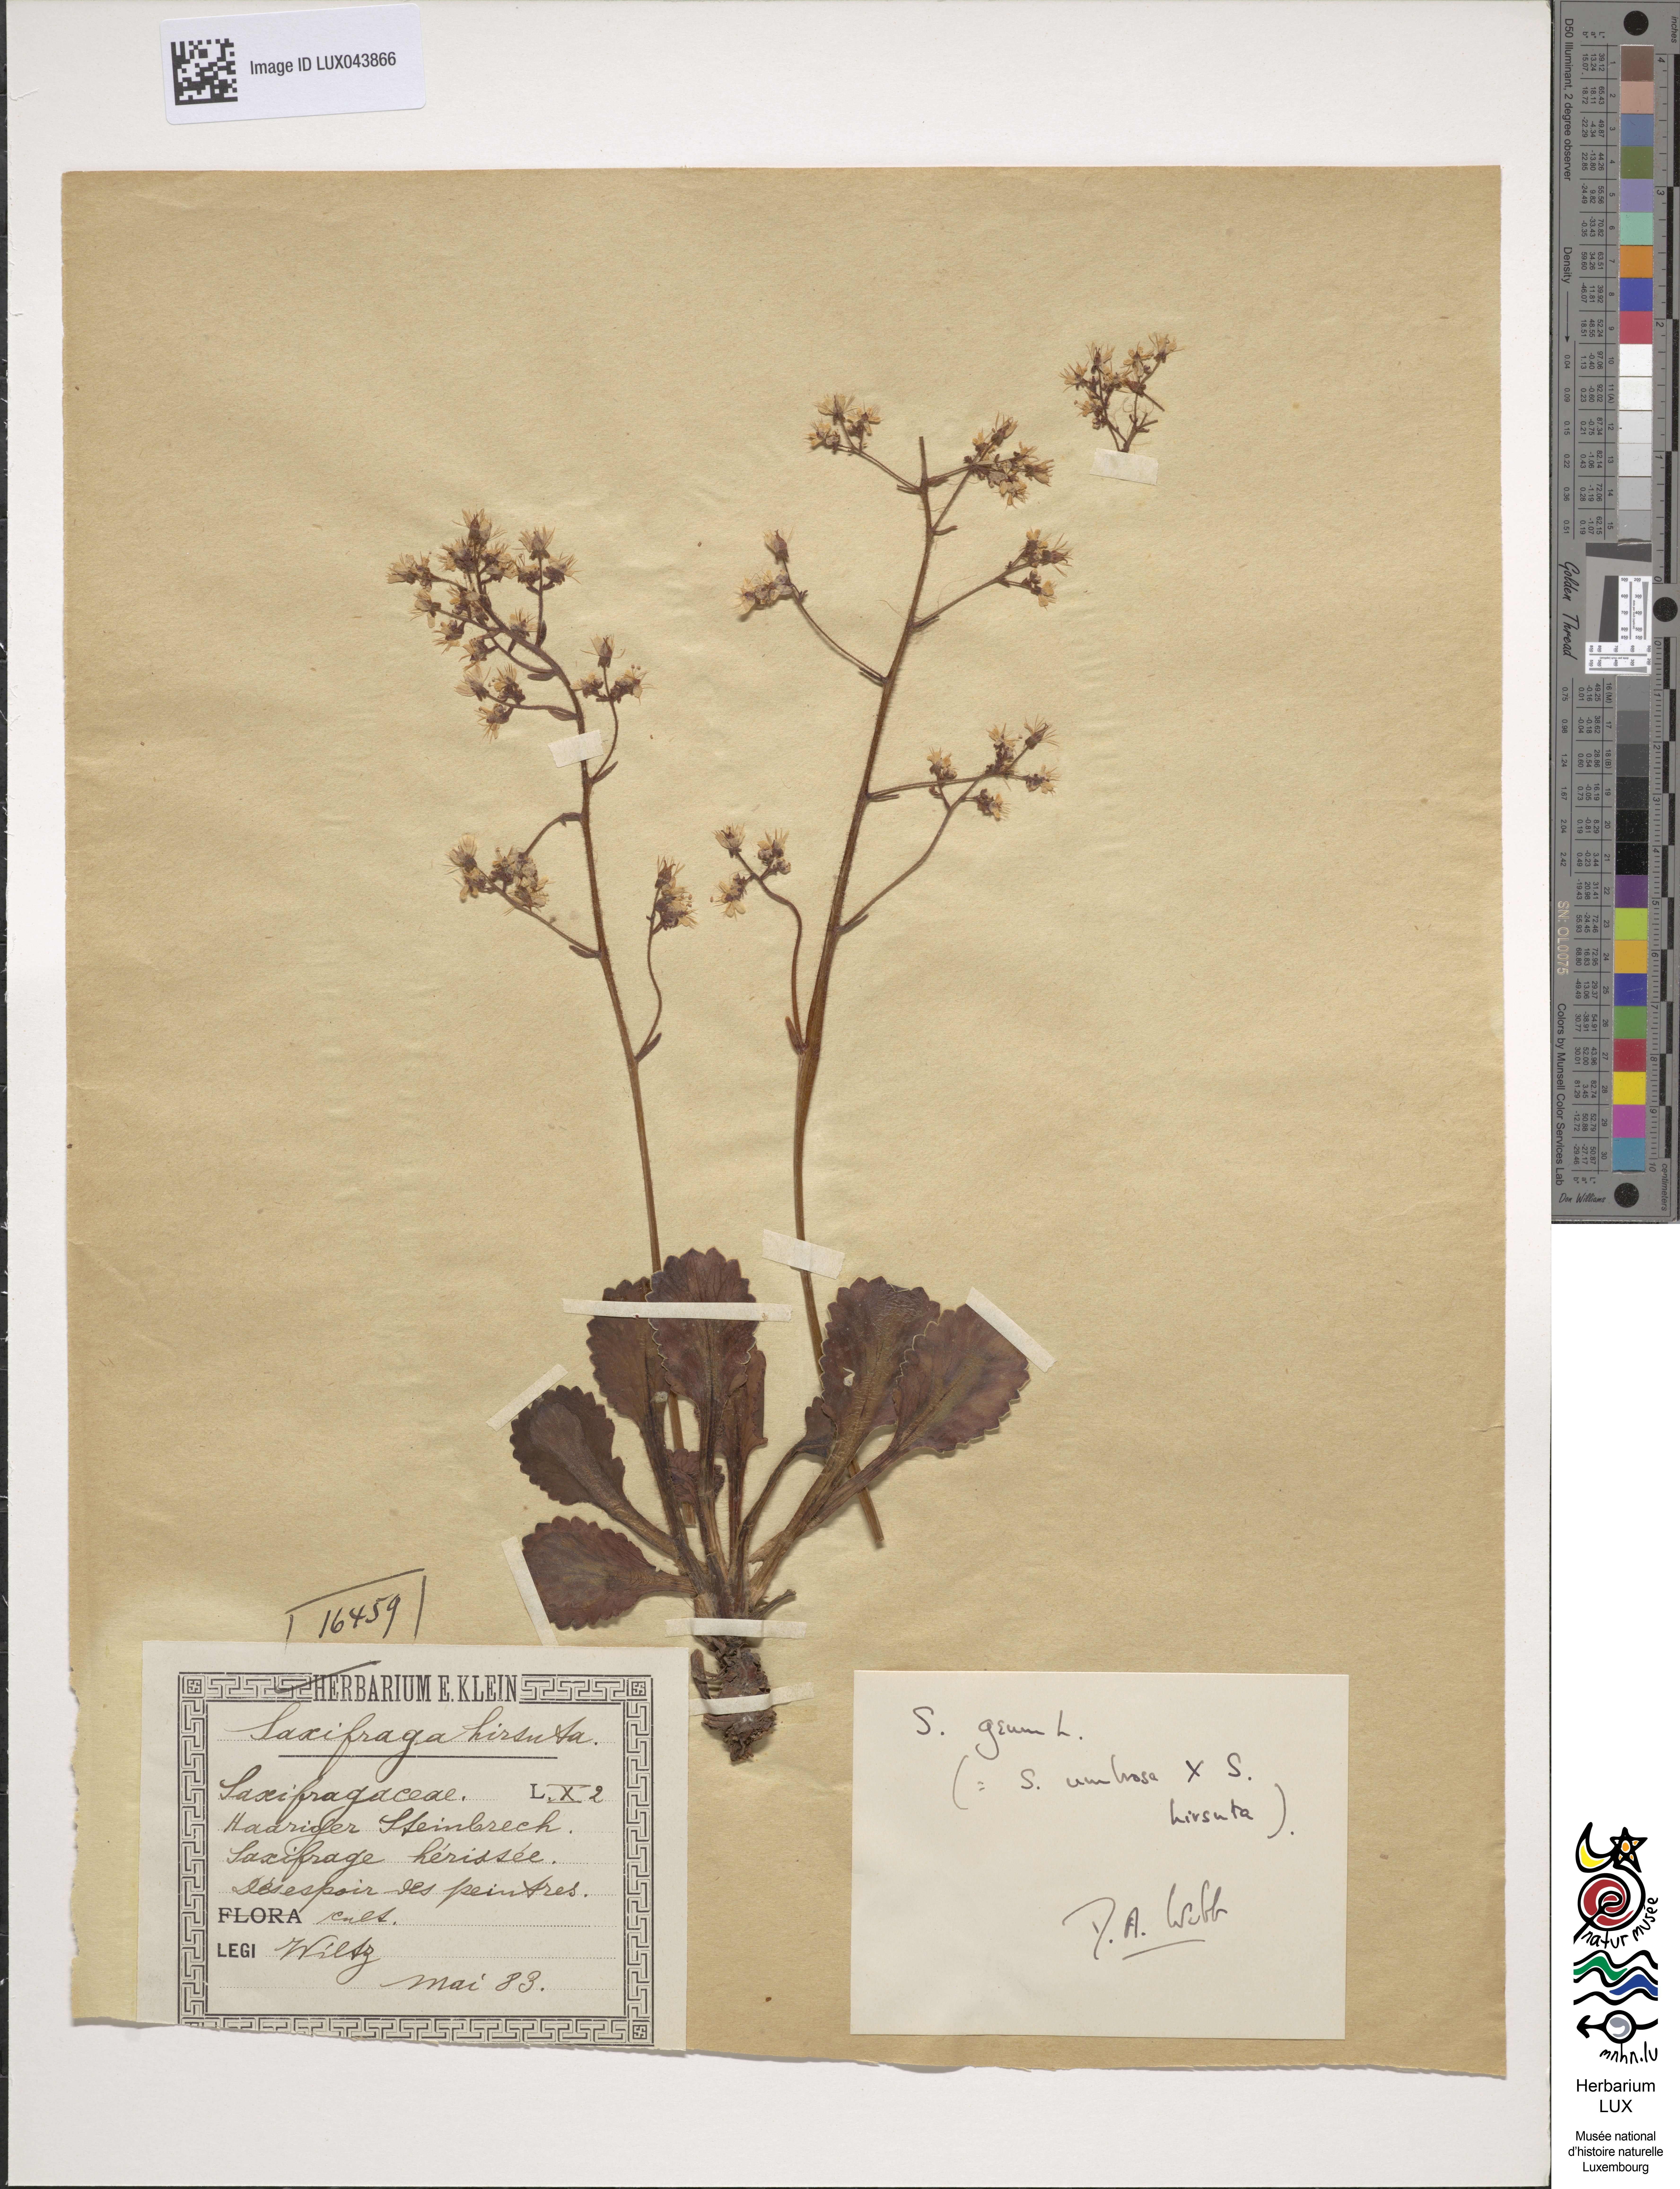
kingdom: Plantae
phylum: Tracheophyta
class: Magnoliopsida
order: Saxifragales
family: Saxifragaceae
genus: Saxifraga
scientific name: Saxifraga
